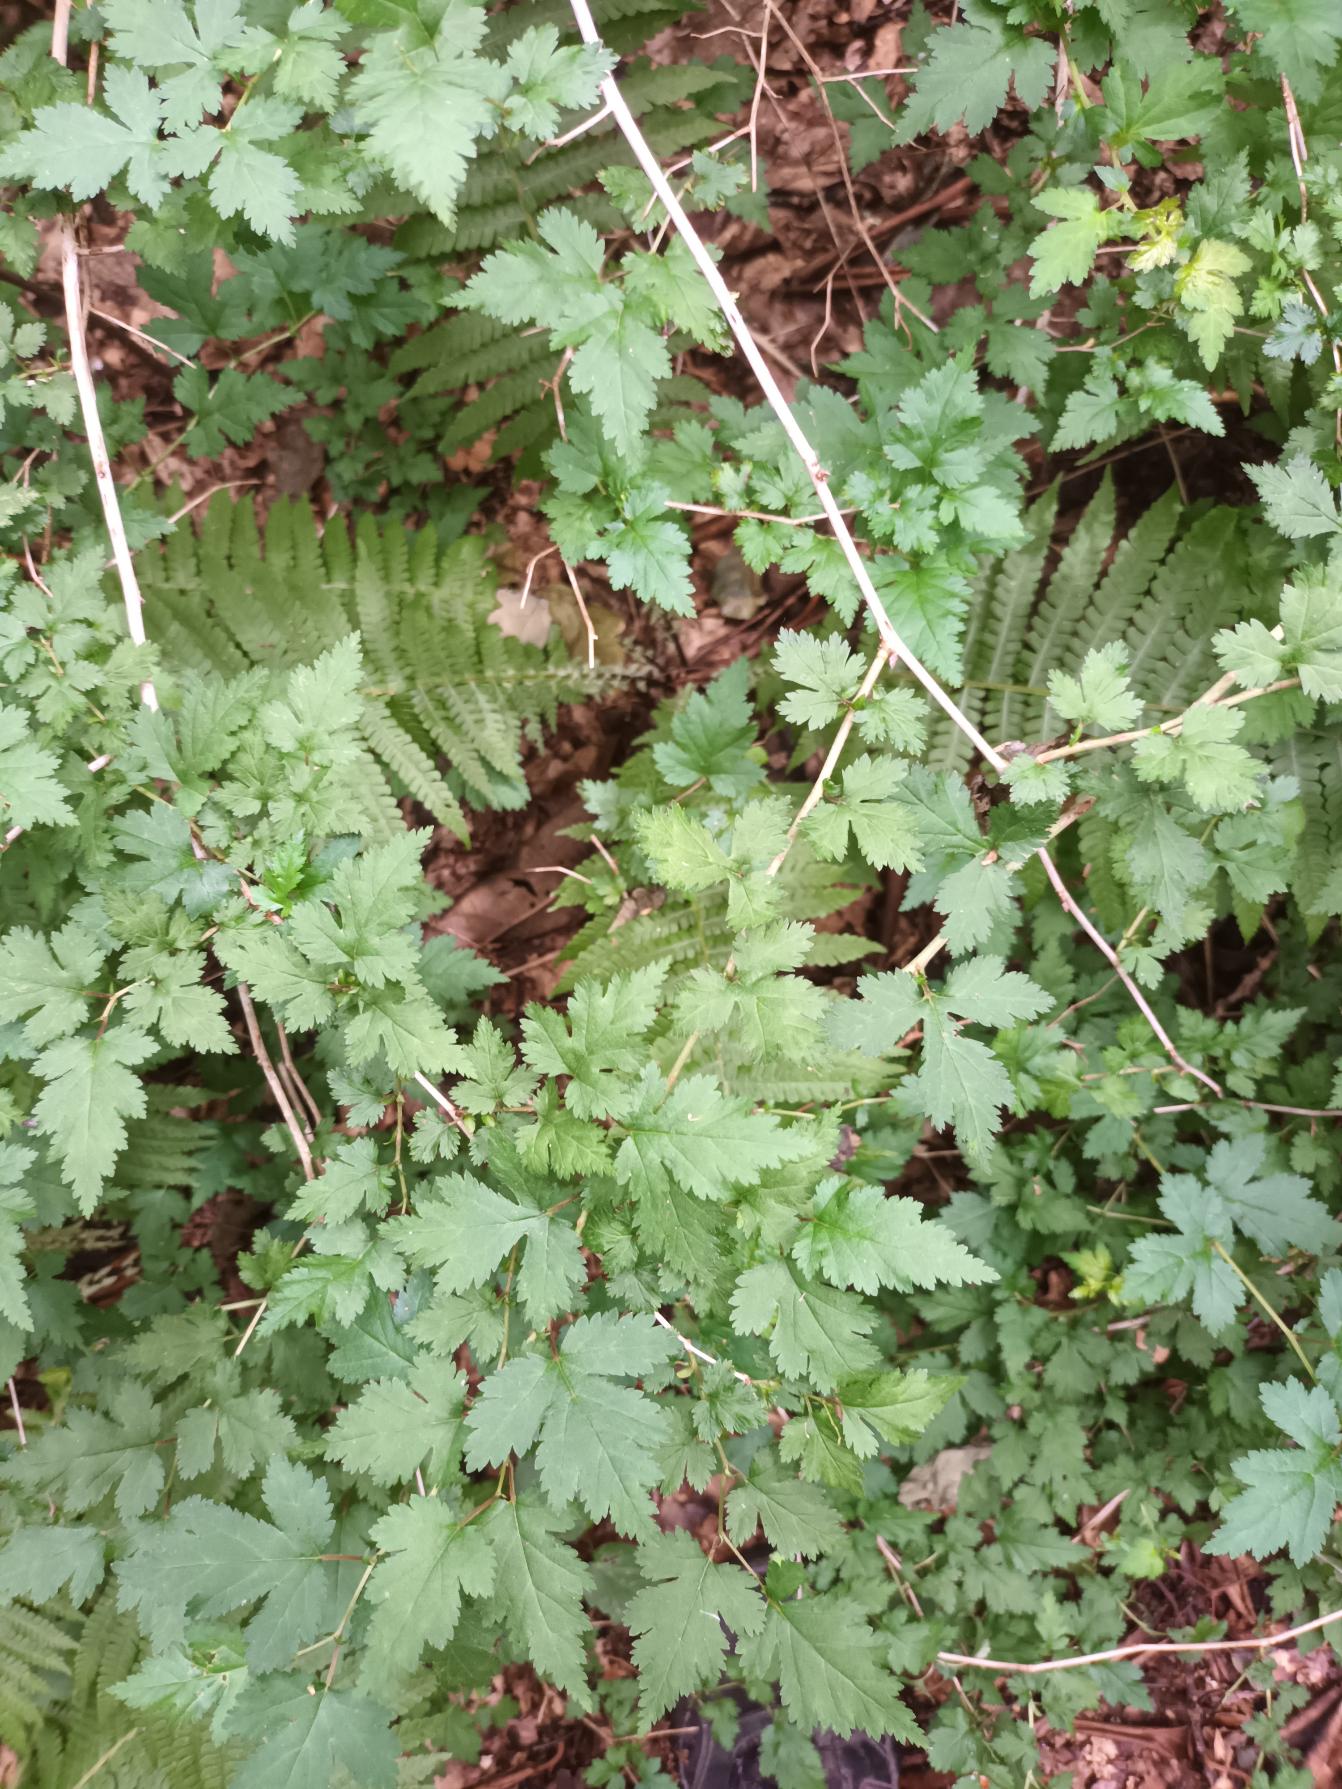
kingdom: Plantae
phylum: Tracheophyta
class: Magnoliopsida
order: Rosales
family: Rosaceae
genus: Neillia
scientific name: Neillia incisa
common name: Fliget kranstop
